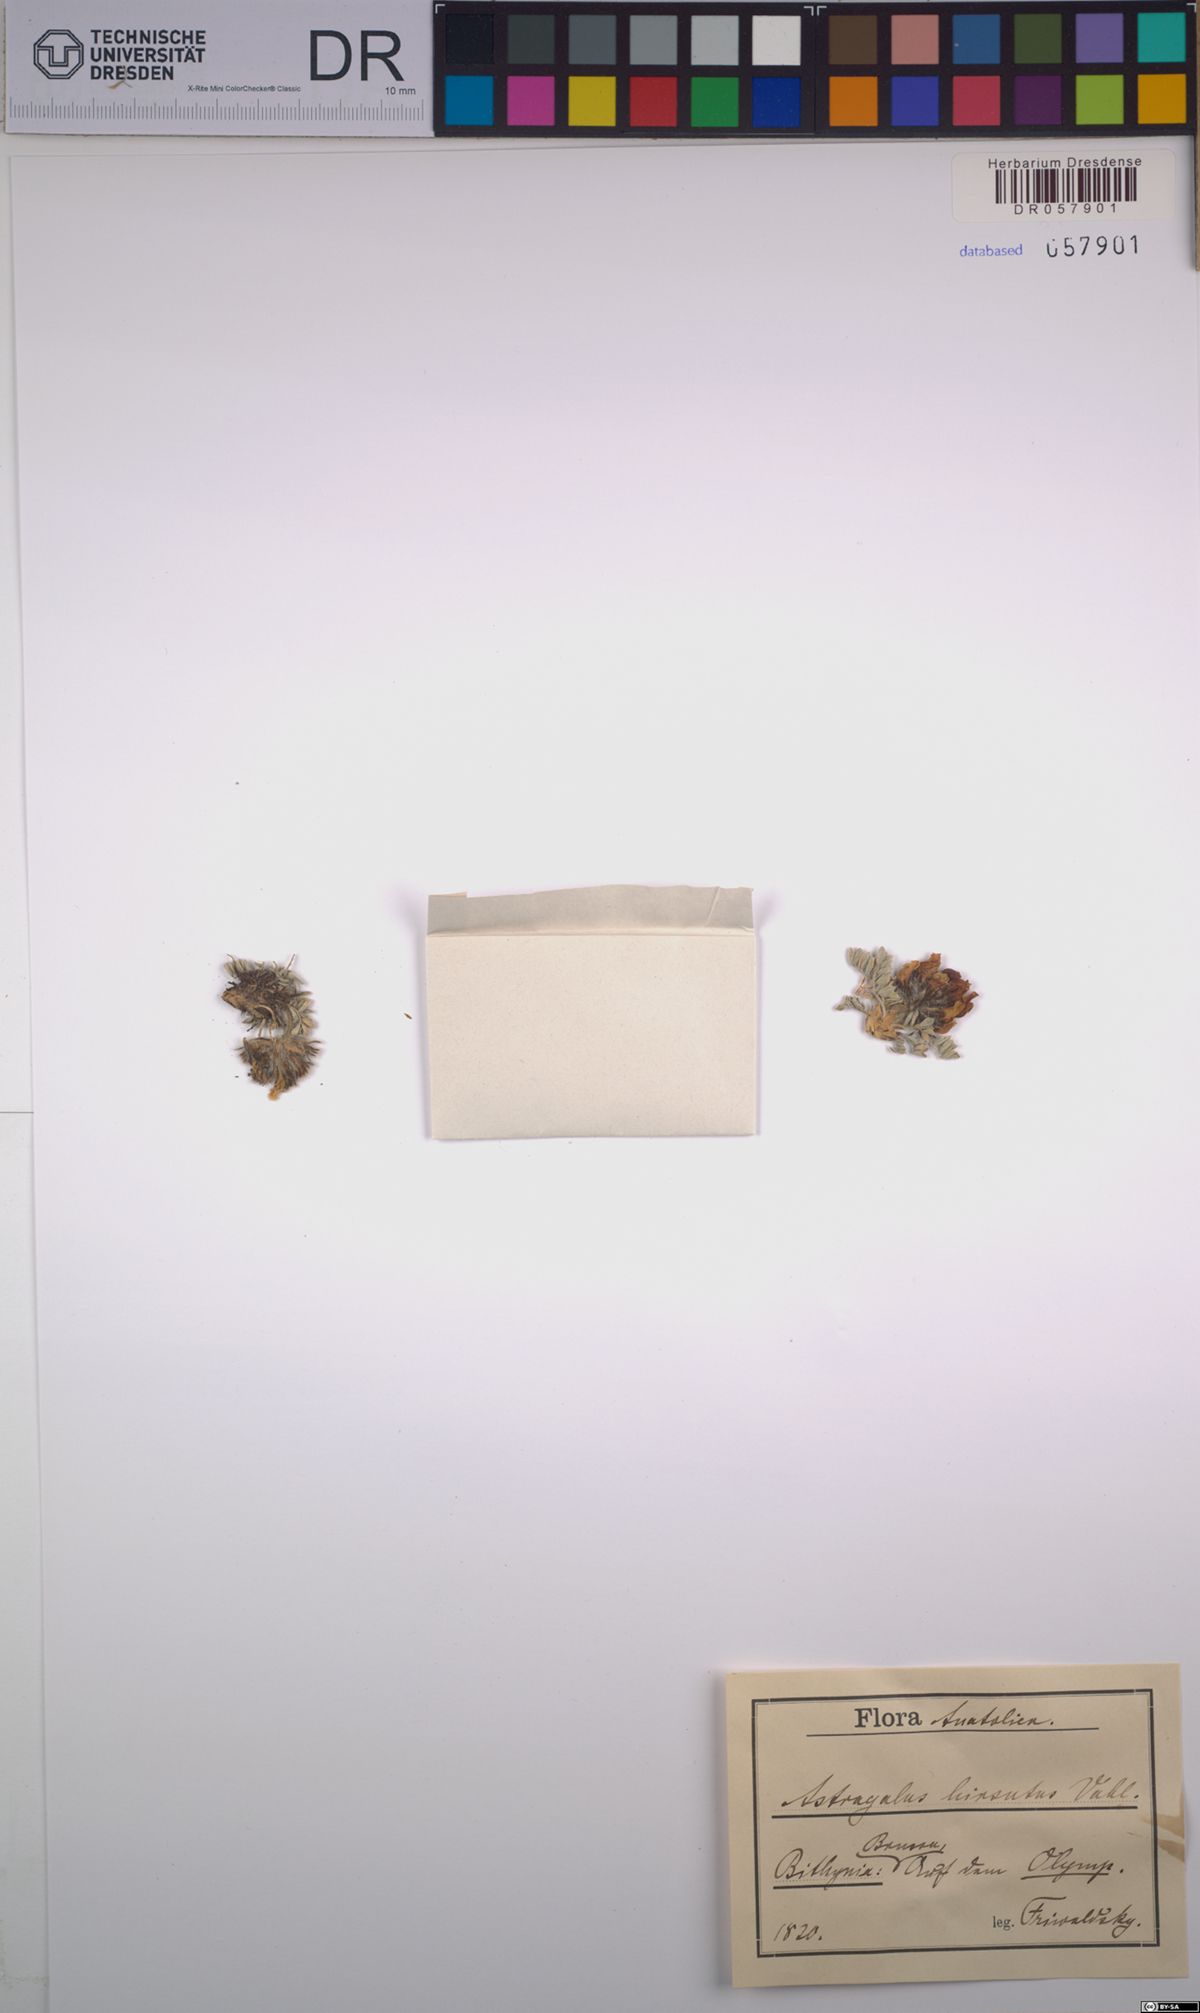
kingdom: Plantae
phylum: Tracheophyta
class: Magnoliopsida
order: Fabales
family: Fabaceae
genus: Astragalus
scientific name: Astragalus hirsutus
